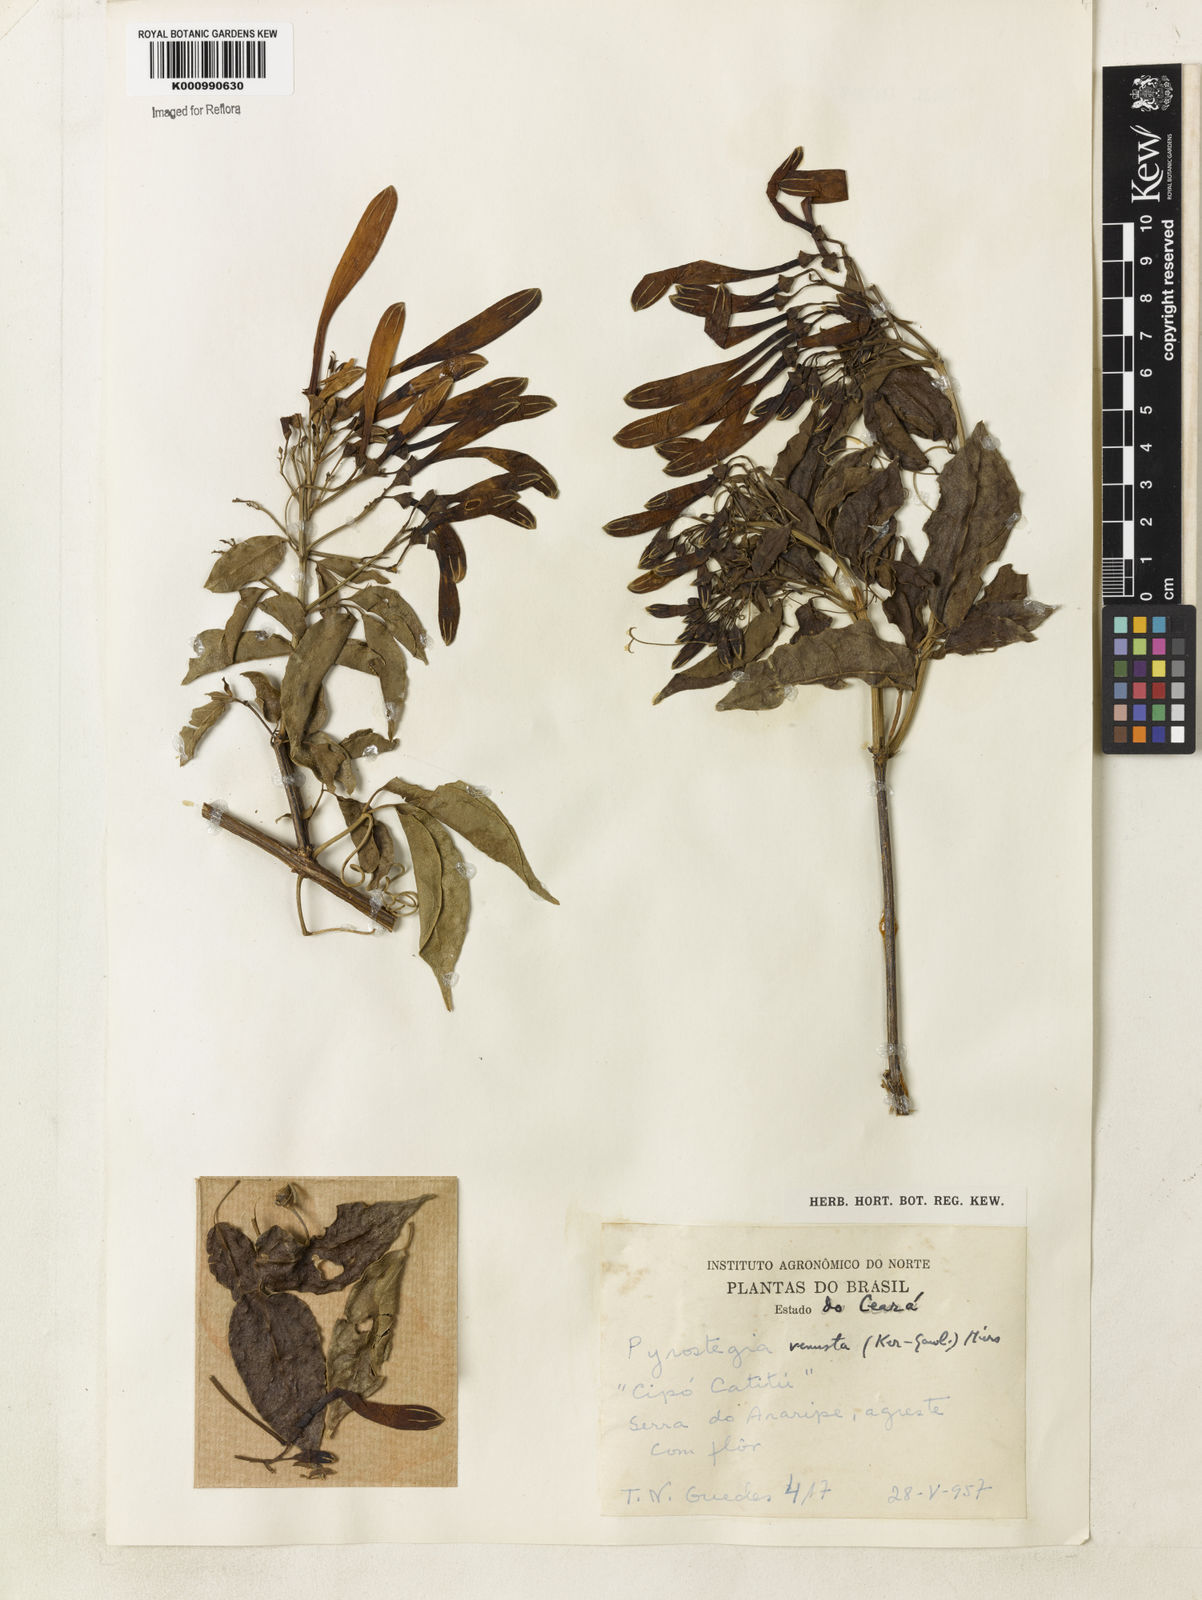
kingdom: Plantae
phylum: Tracheophyta
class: Magnoliopsida
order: Lamiales
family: Bignoniaceae
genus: Pyrostegia
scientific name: Pyrostegia venusta
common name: Flamevine
